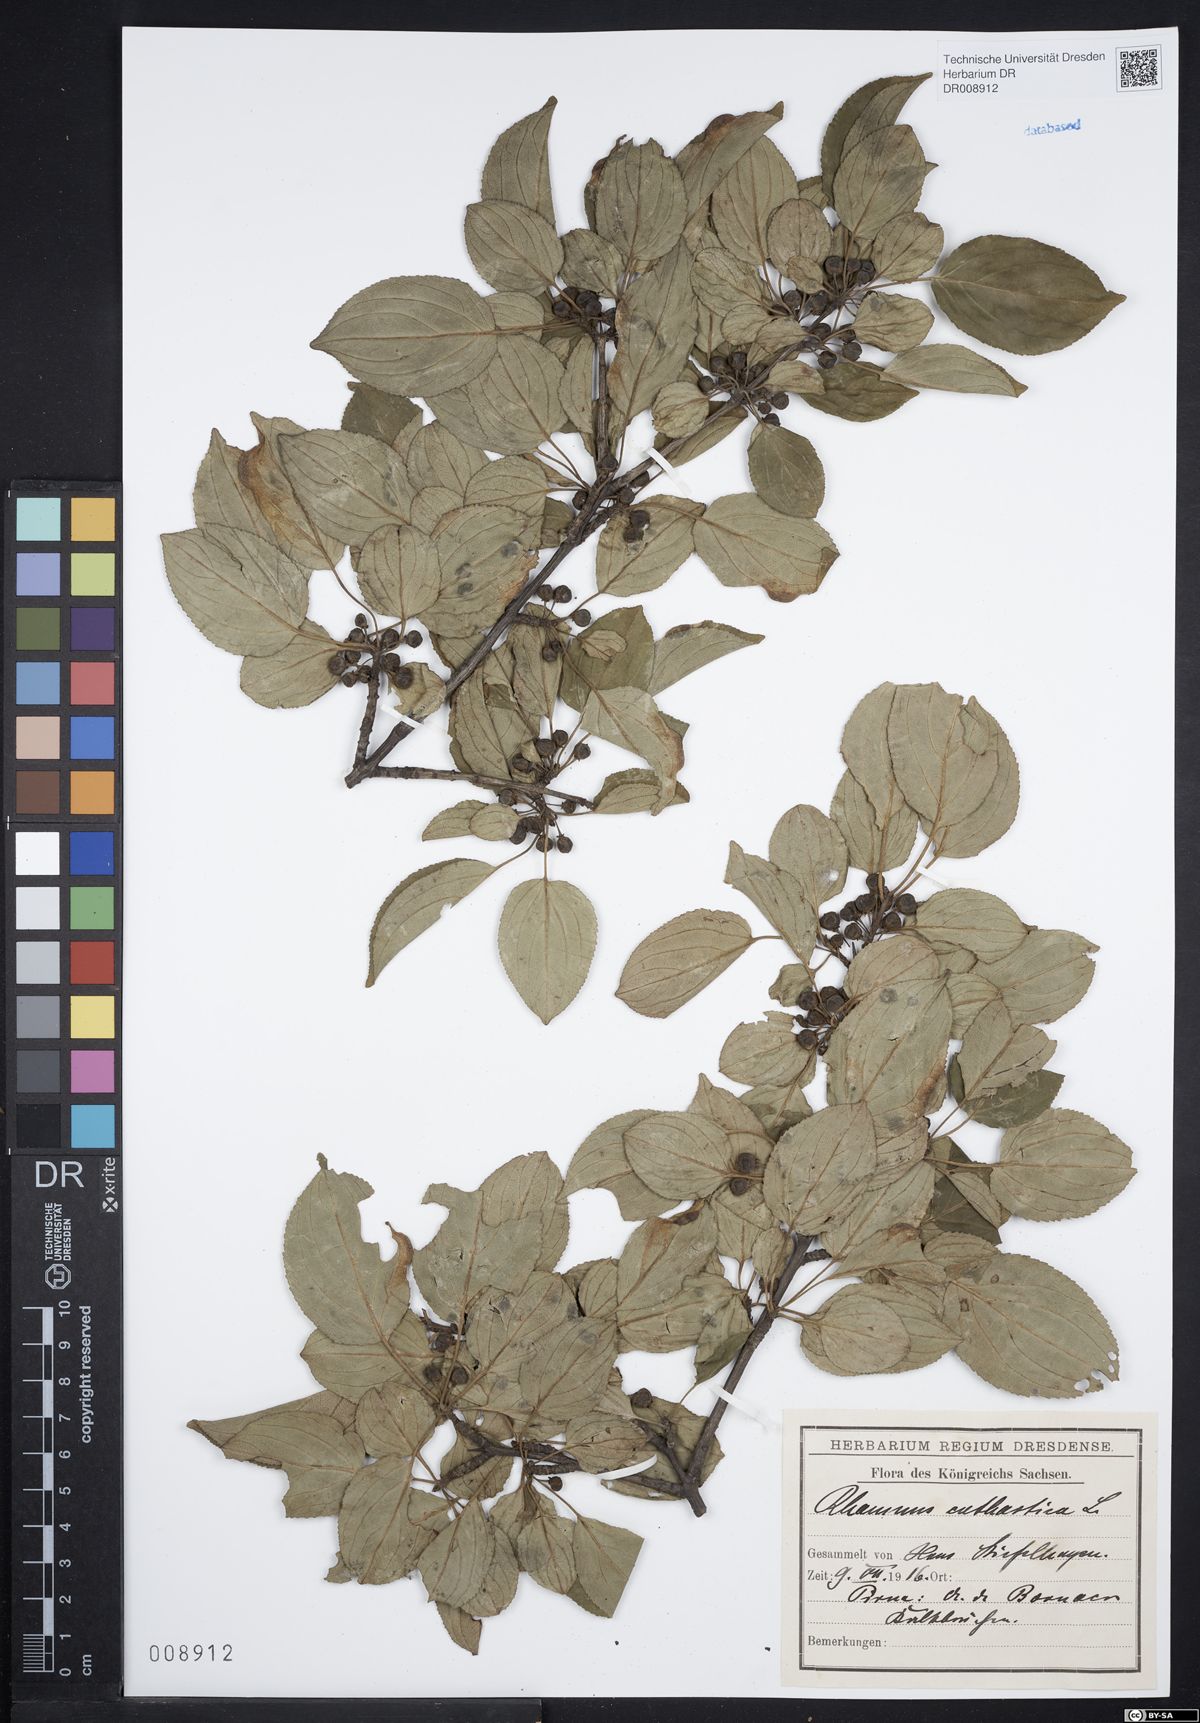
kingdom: Plantae
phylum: Tracheophyta
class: Magnoliopsida
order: Rosales
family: Rhamnaceae
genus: Rhamnus
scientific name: Rhamnus cathartica
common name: Common buckthorn
